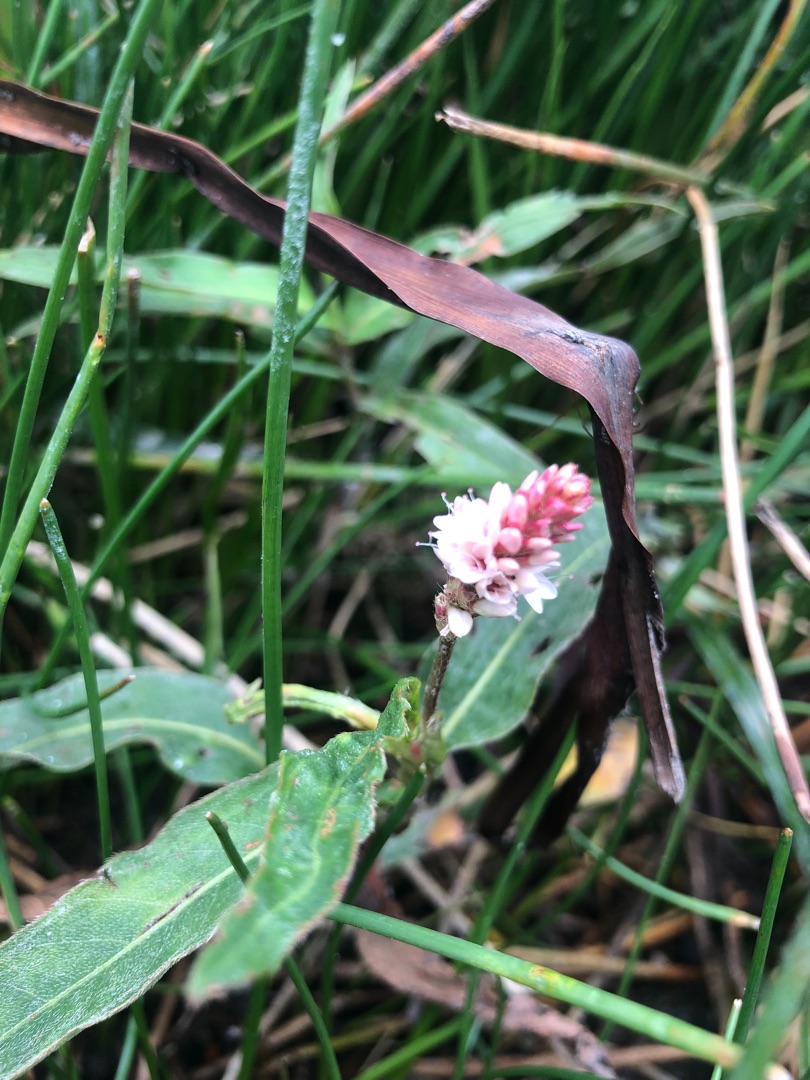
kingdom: Plantae
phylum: Tracheophyta
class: Magnoliopsida
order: Caryophyllales
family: Polygonaceae
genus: Persicaria
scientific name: Persicaria amphibia
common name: Vand-pileurt
